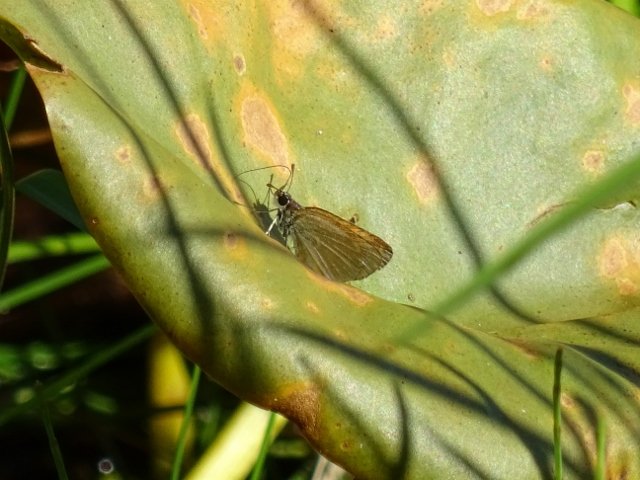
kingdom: Animalia
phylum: Arthropoda
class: Insecta
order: Lepidoptera
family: Hesperiidae
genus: Ancyloxypha
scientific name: Ancyloxypha numitor
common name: Least Skipper
